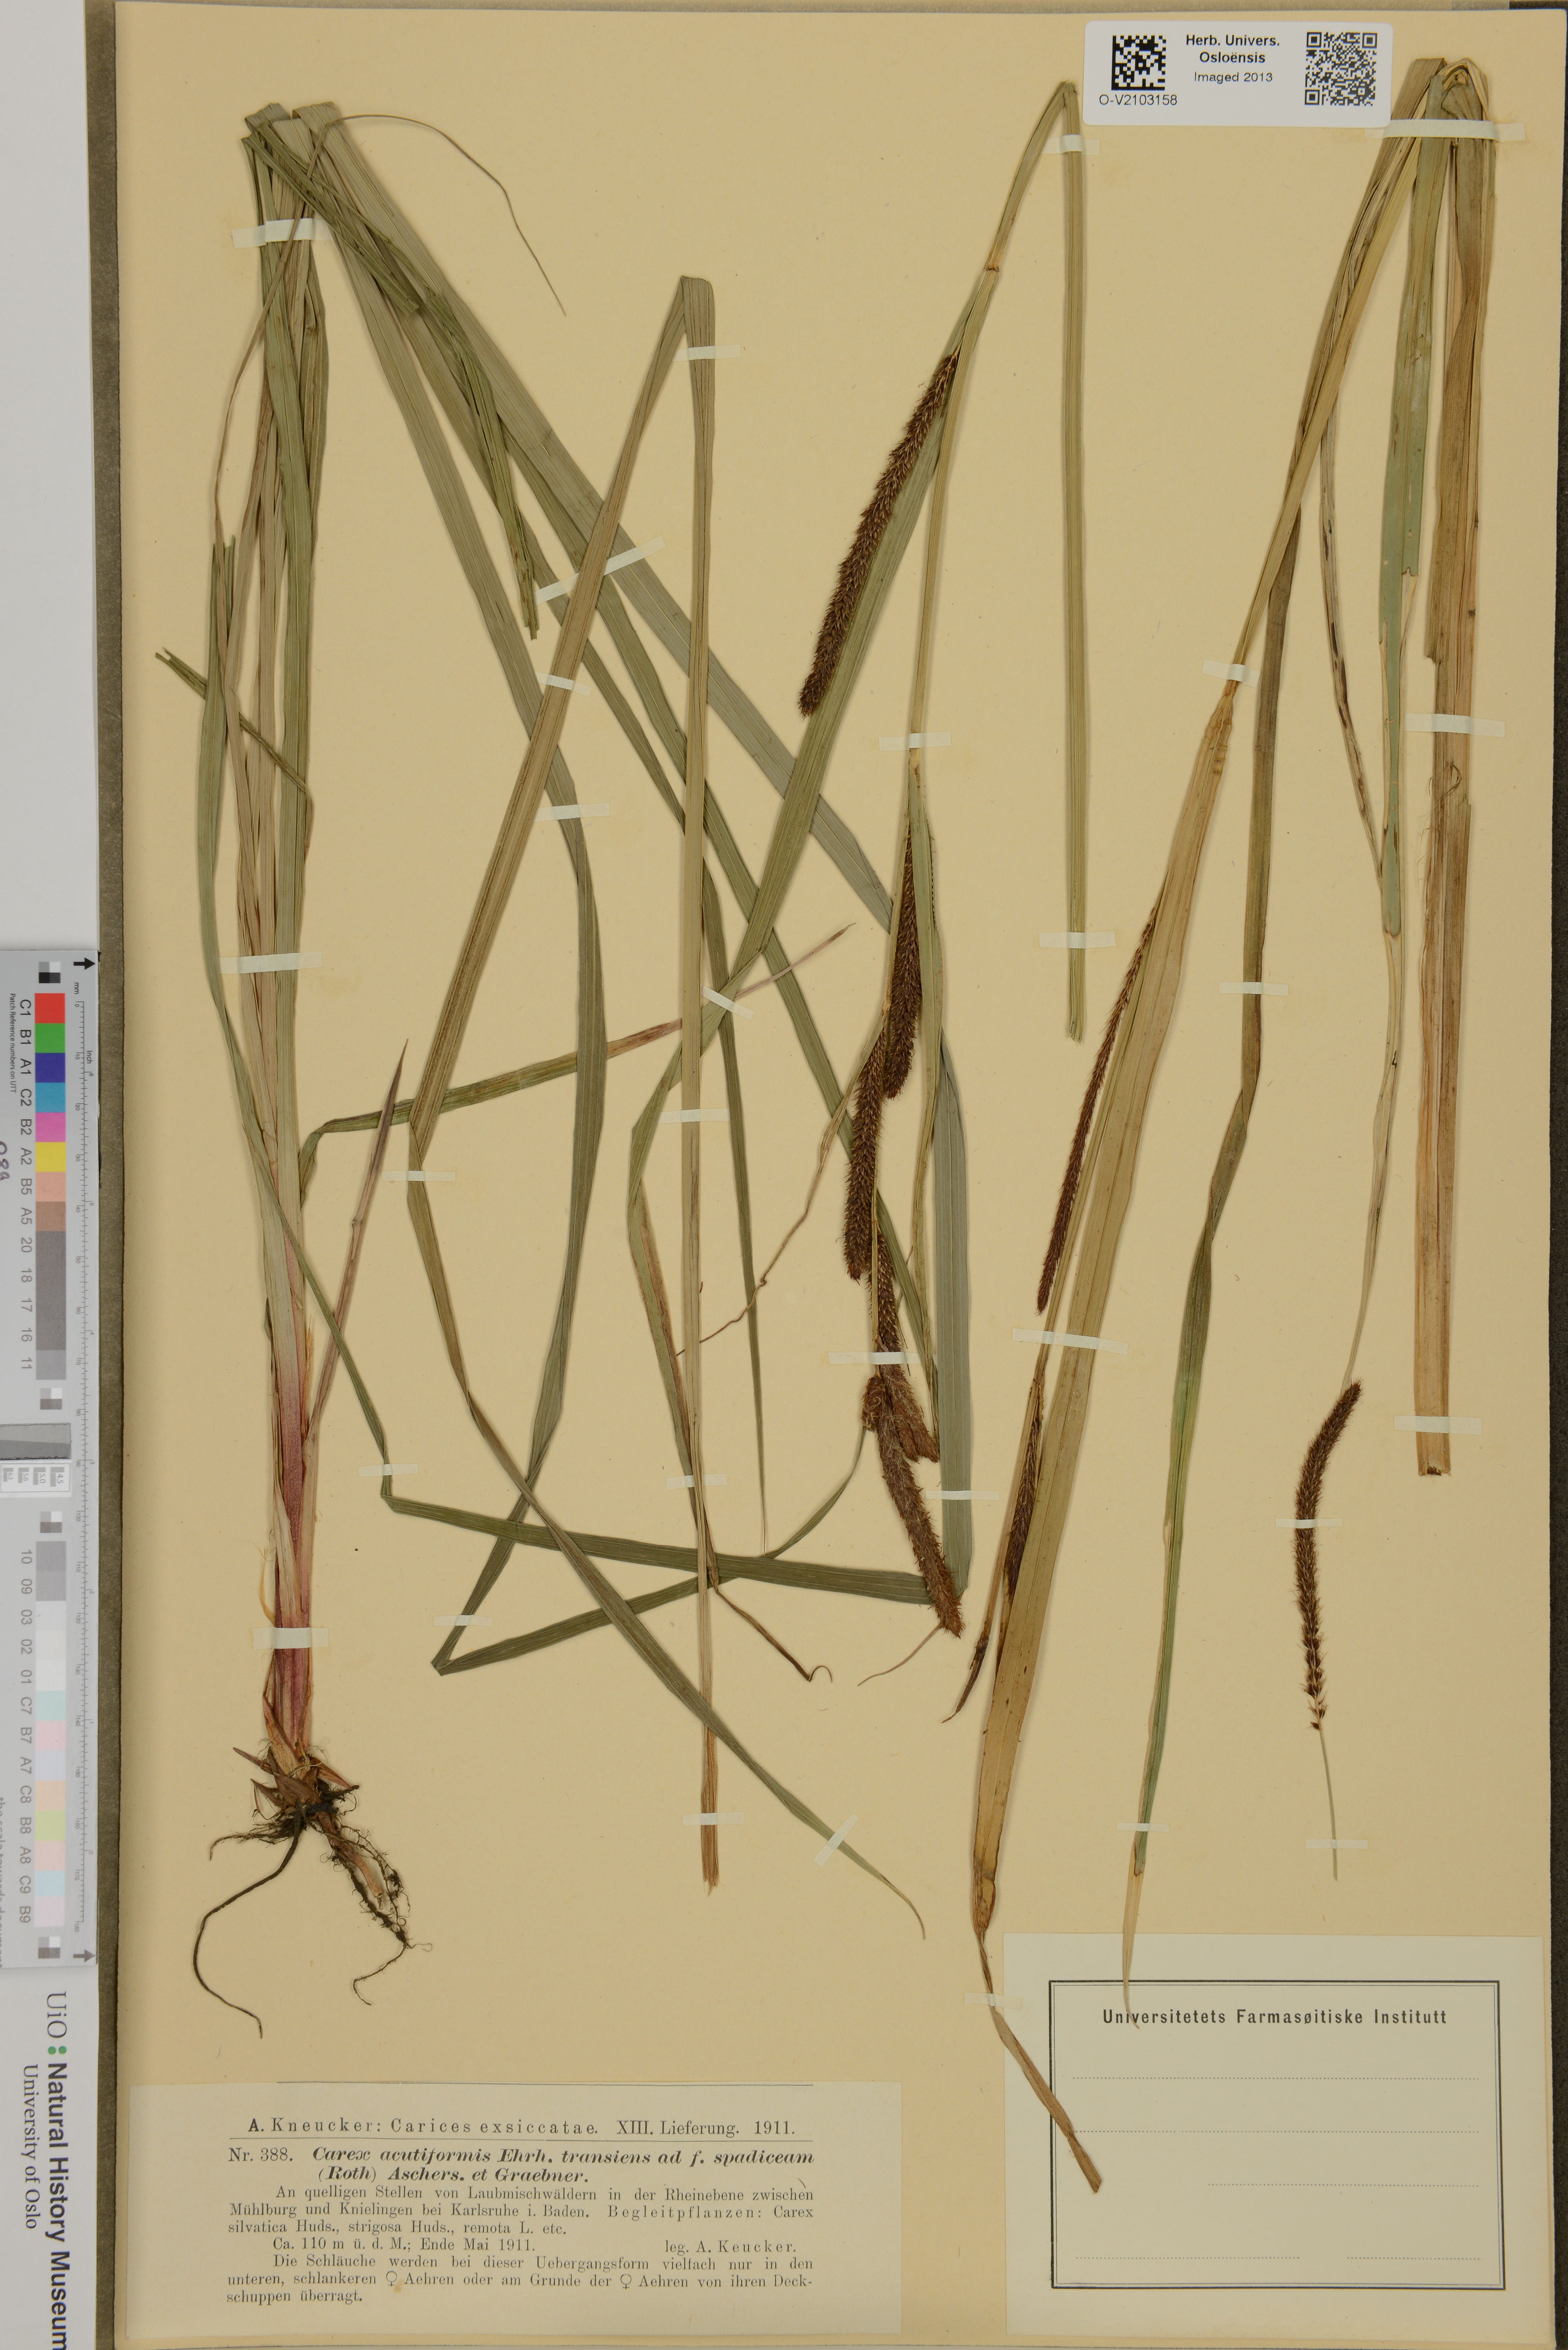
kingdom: Plantae
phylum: Tracheophyta
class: Liliopsida
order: Poales
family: Cyperaceae
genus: Carex
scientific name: Carex acutiformis
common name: Lesser pond-sedge
